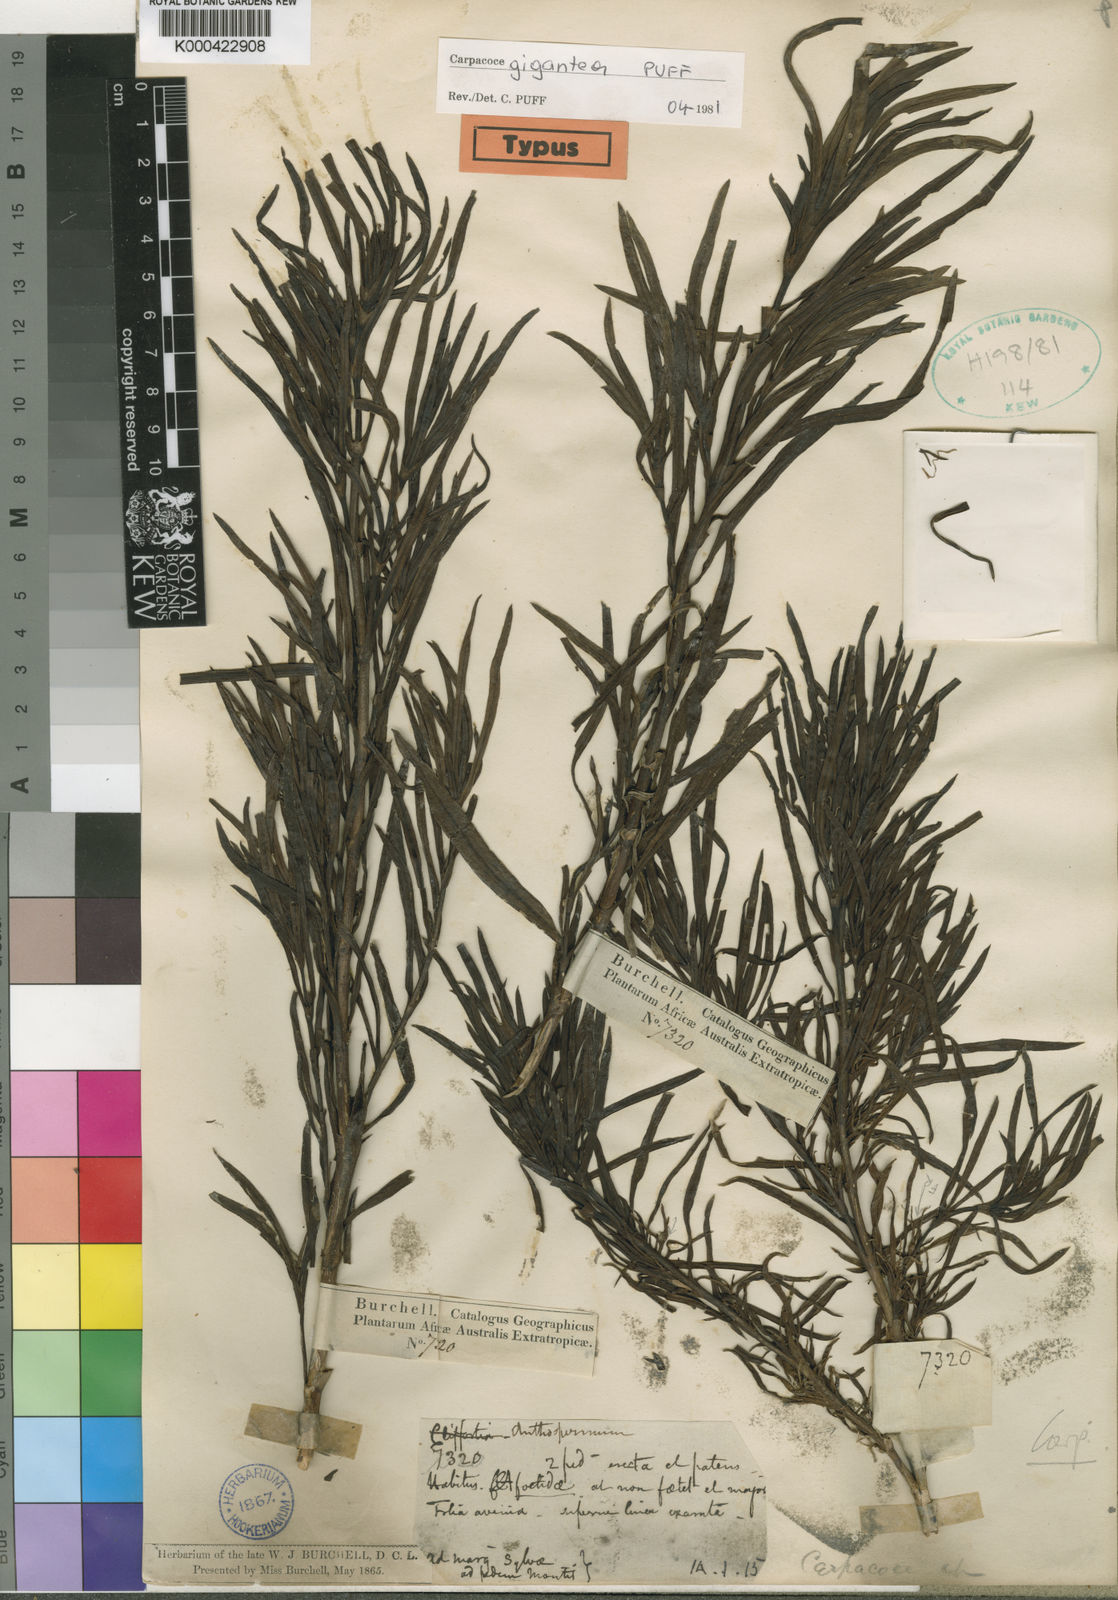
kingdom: Plantae
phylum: Tracheophyta
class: Magnoliopsida
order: Gentianales
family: Rubiaceae
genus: Carpacoce
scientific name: Carpacoce gigantea
